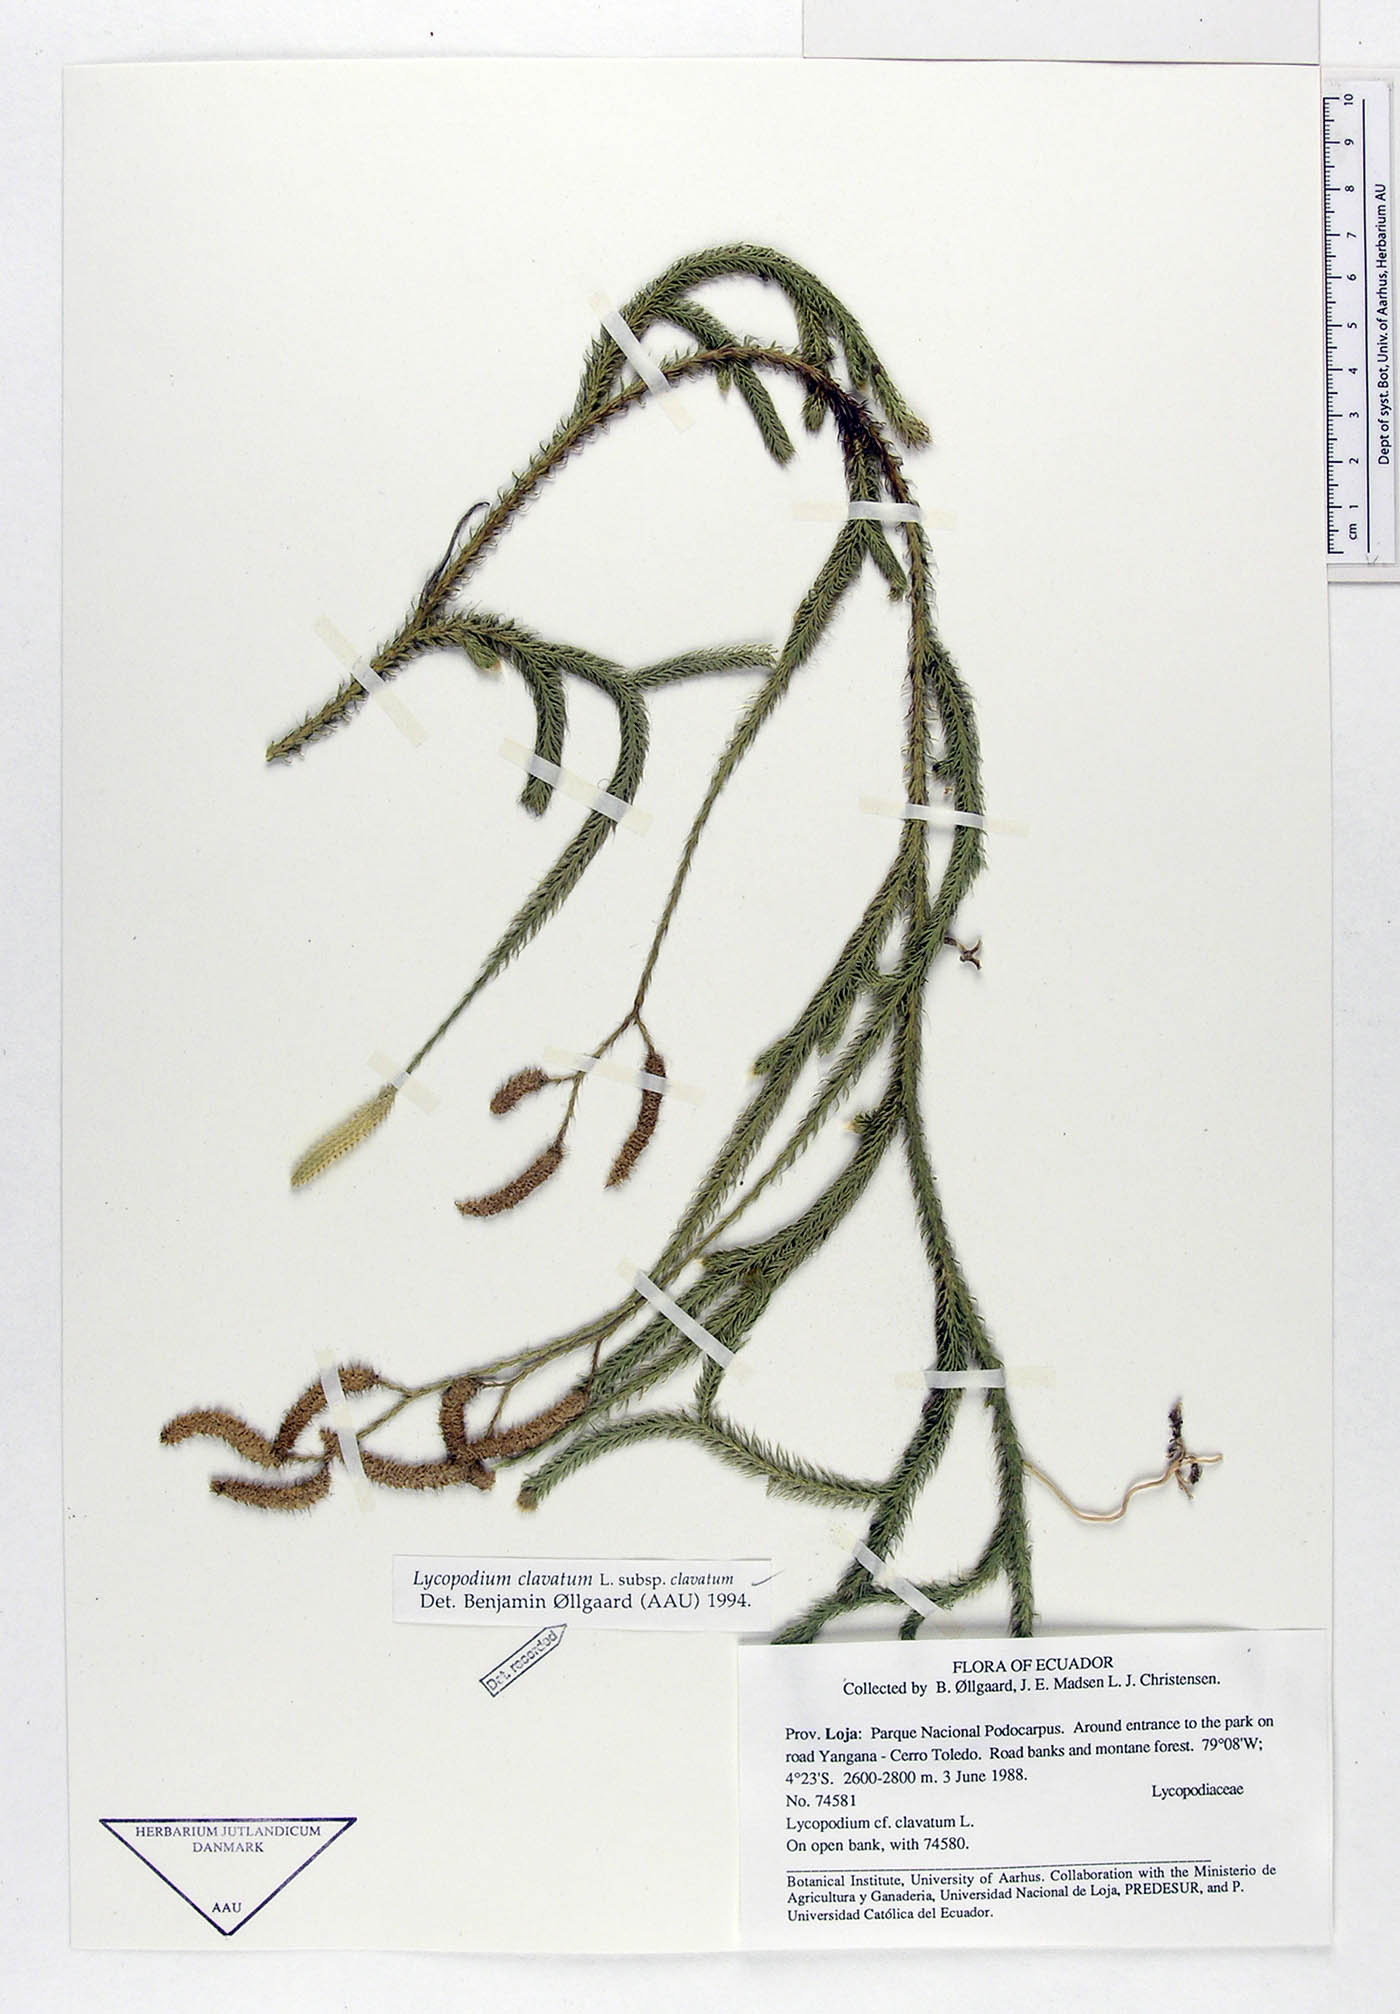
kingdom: Plantae
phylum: Tracheophyta
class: Lycopodiopsida
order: Lycopodiales
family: Lycopodiaceae
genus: Lycopodium
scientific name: Lycopodium clavatum
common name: Stag's-horn clubmoss
